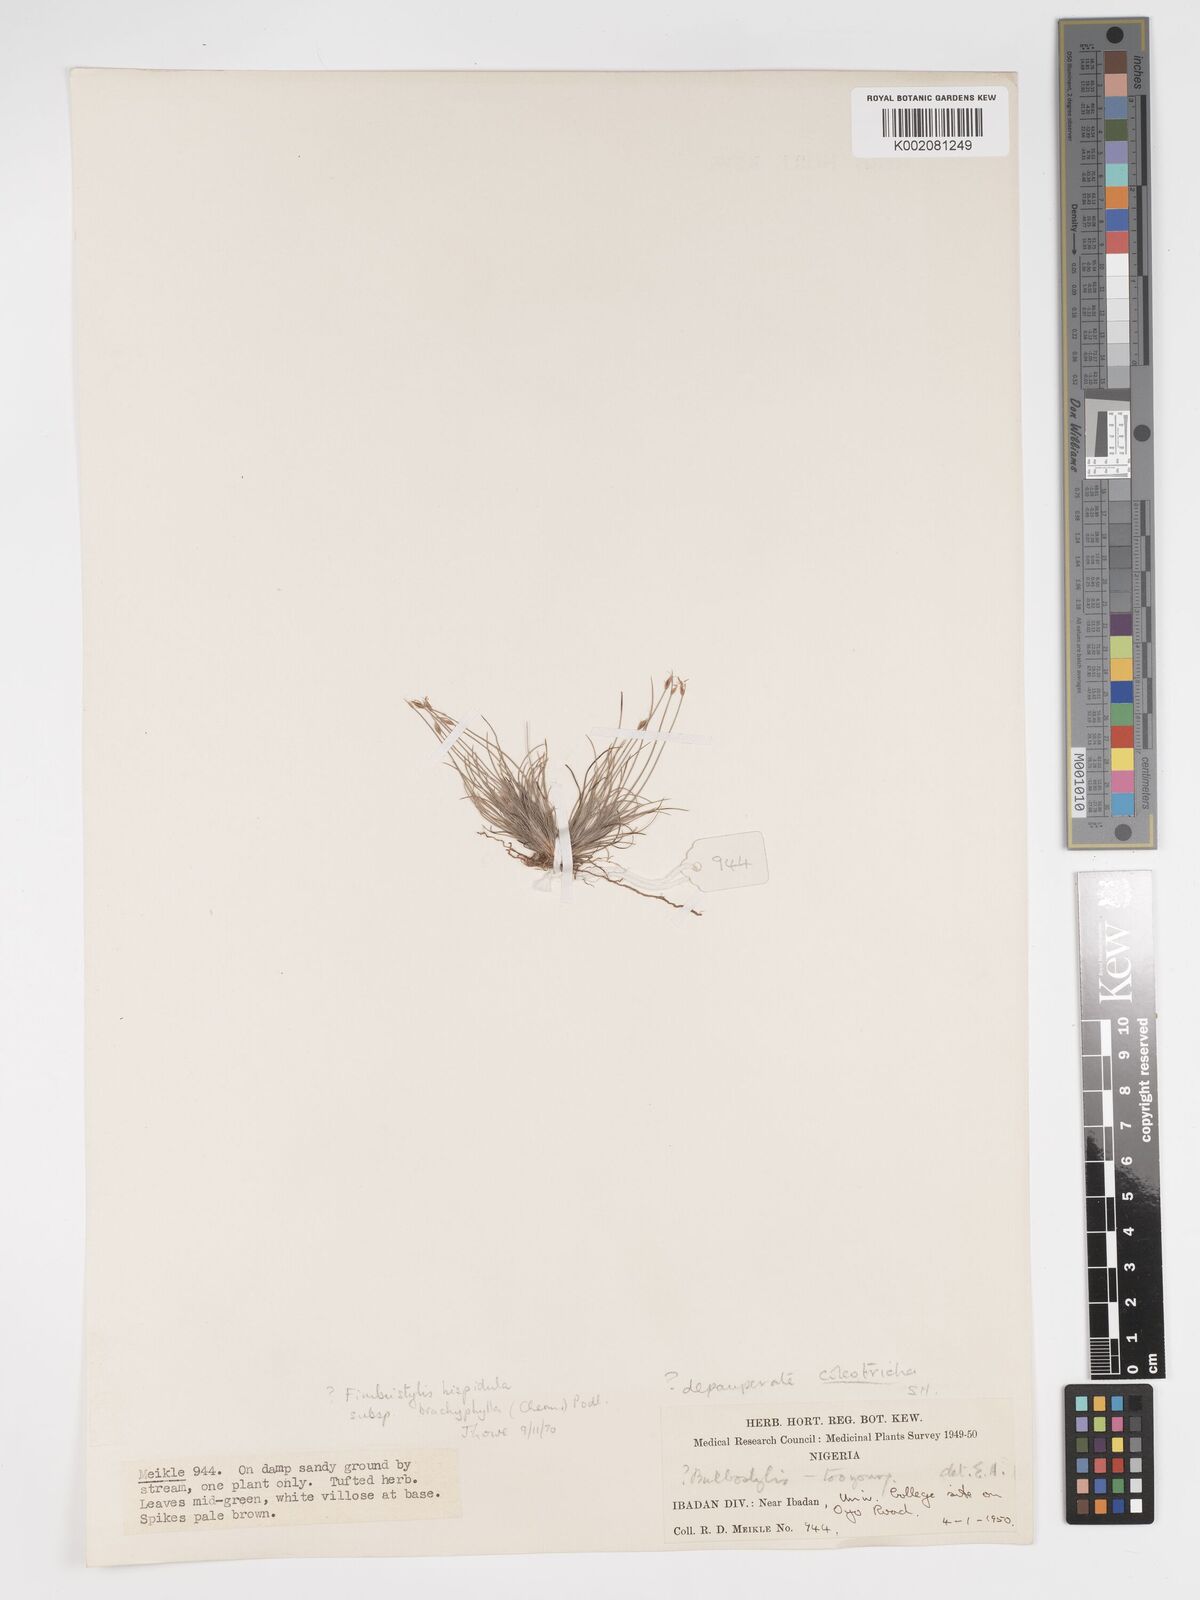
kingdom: Plantae
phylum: Tracheophyta
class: Liliopsida
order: Poales
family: Cyperaceae
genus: Bulbostylis
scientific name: Bulbostylis hispidula
